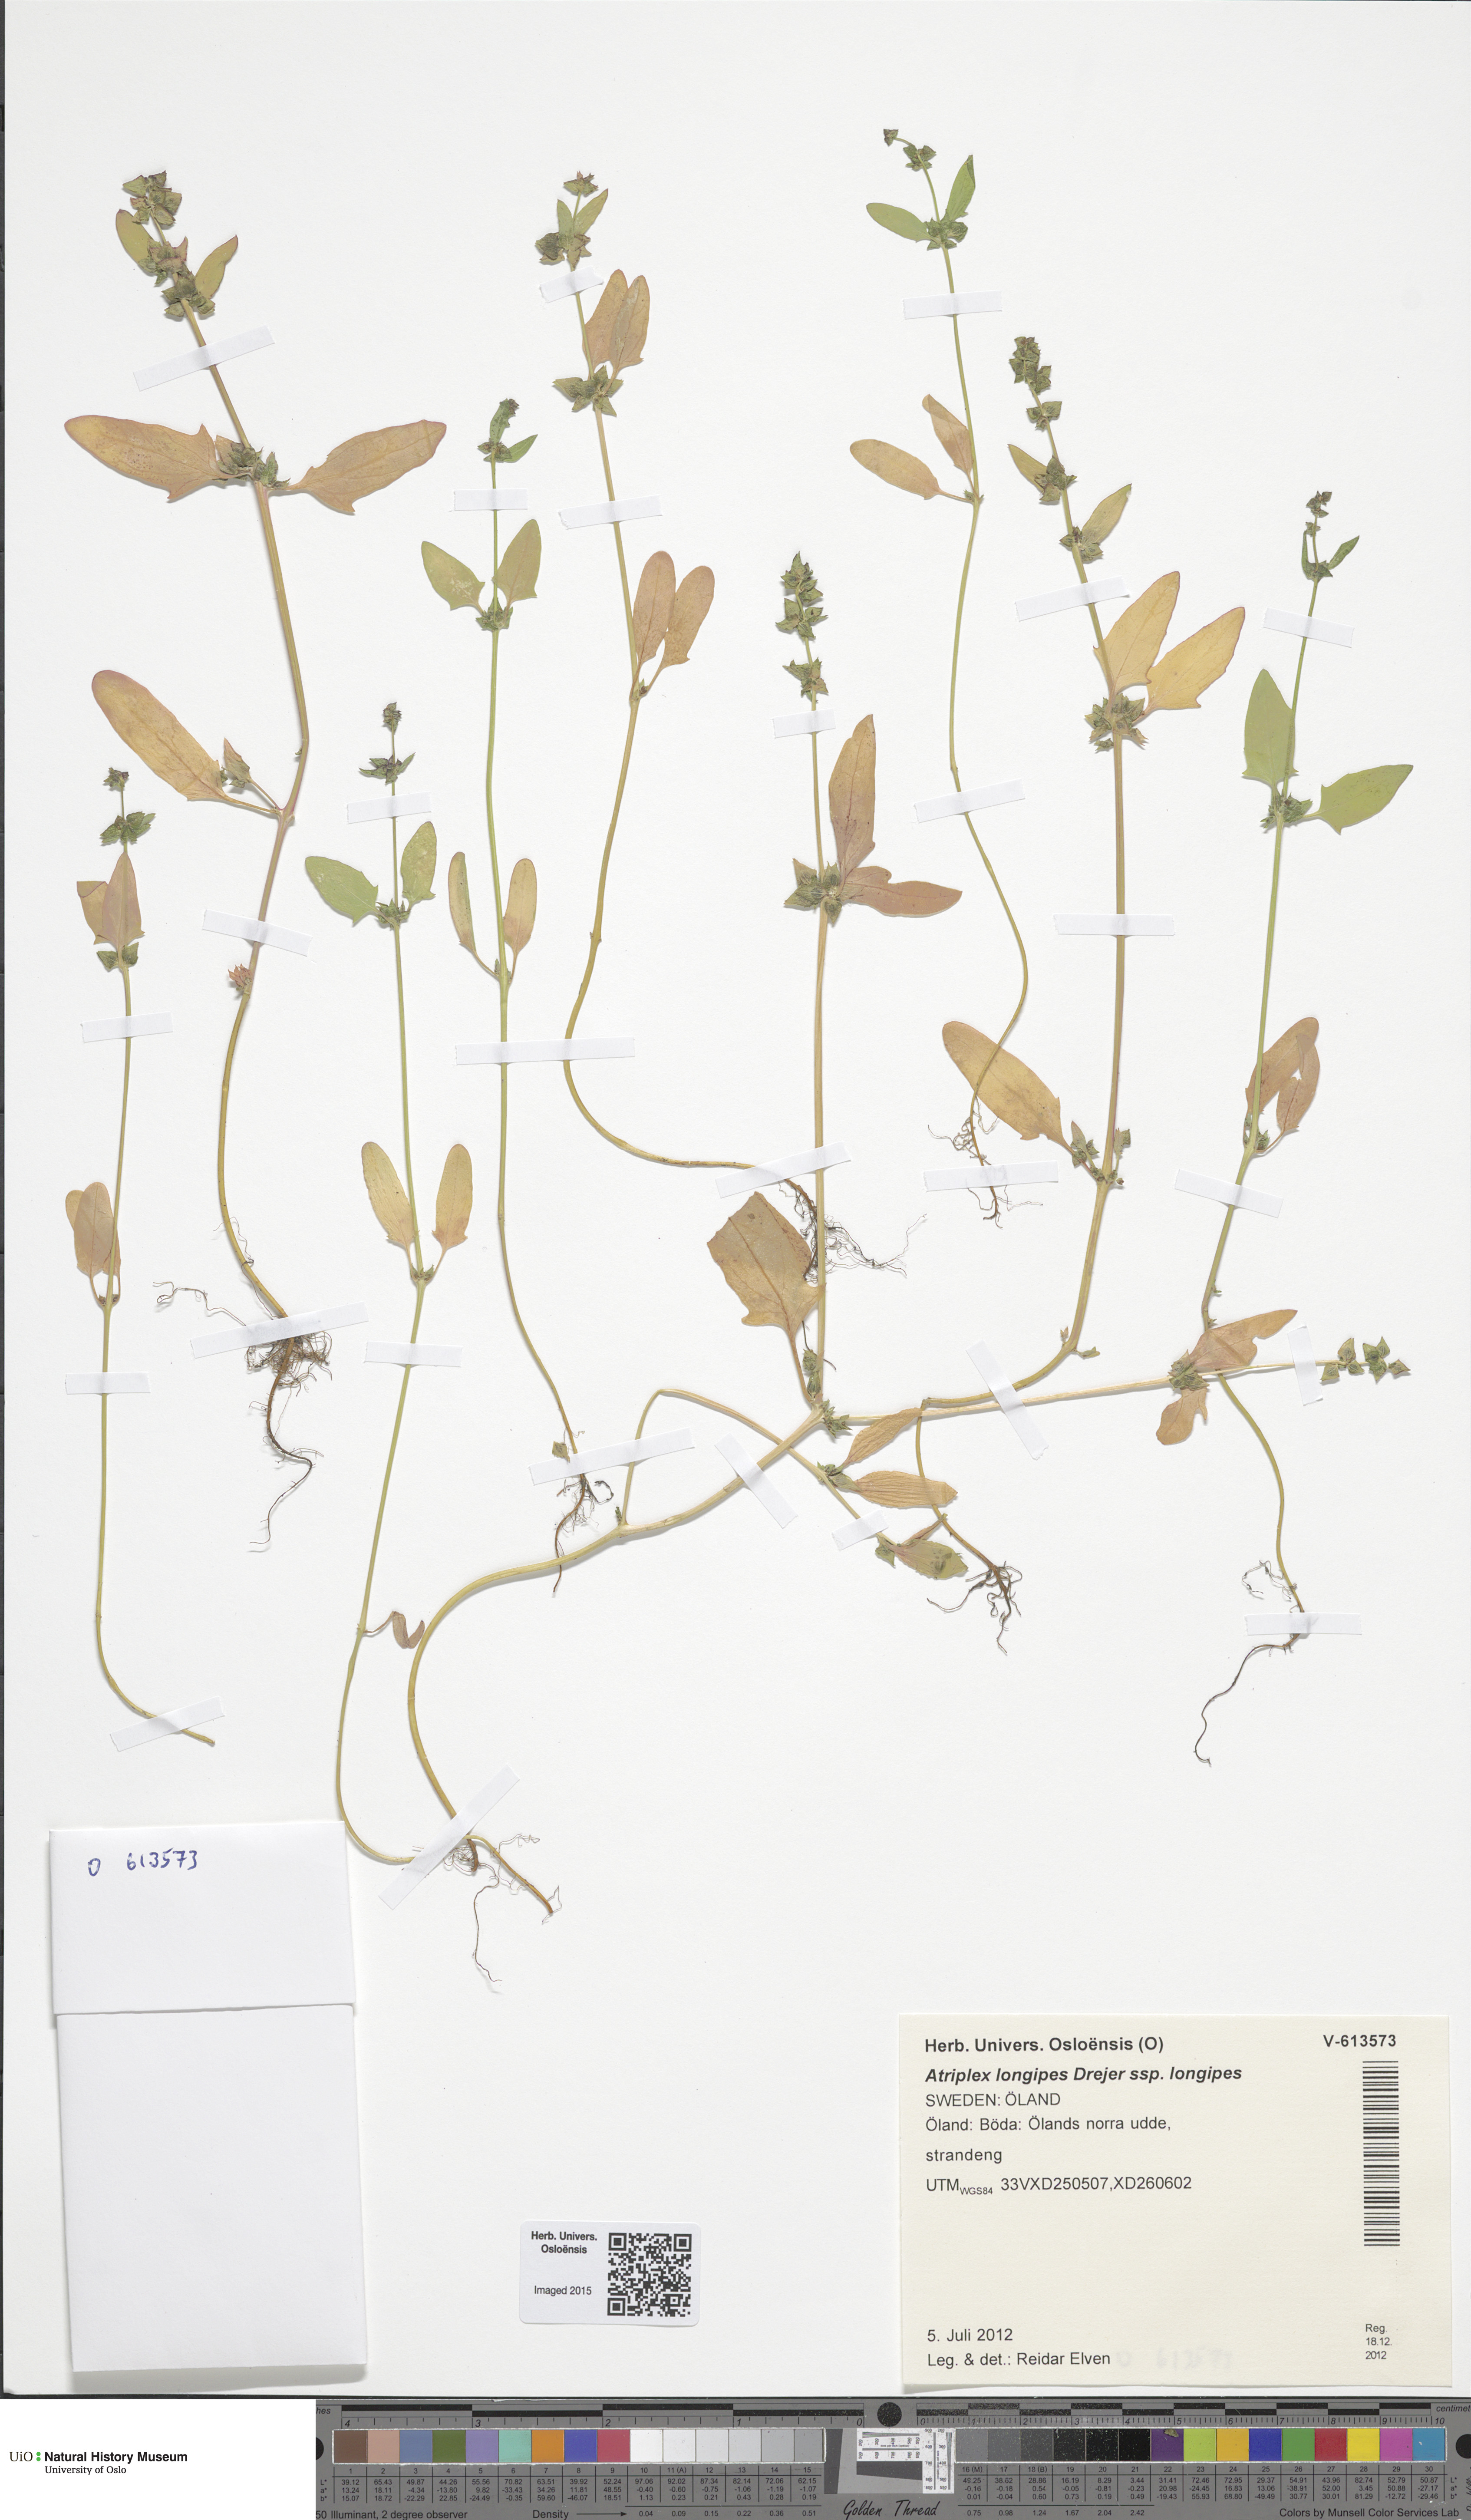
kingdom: Plantae
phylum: Tracheophyta
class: Magnoliopsida
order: Caryophyllales
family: Amaranthaceae
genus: Atriplex
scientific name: Atriplex longipes
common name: Long-stalked orache
